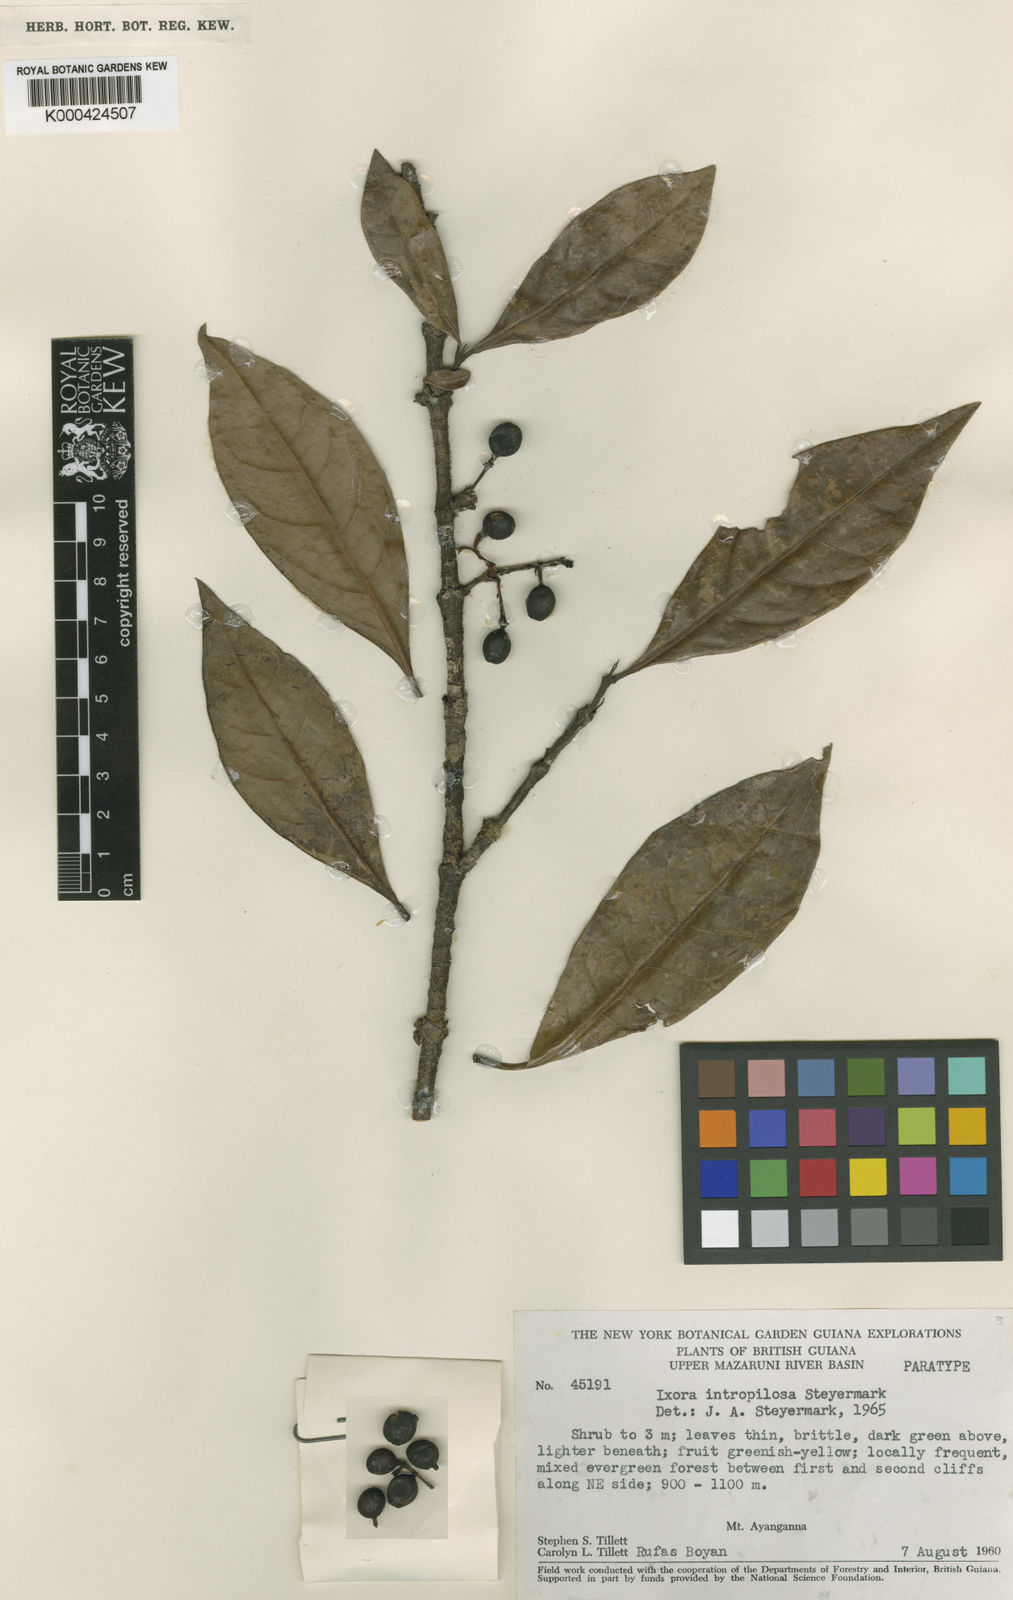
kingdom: Plantae
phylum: Tracheophyta
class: Magnoliopsida
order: Gentianales
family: Rubiaceae
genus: Ixora
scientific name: Ixora intropilosa
